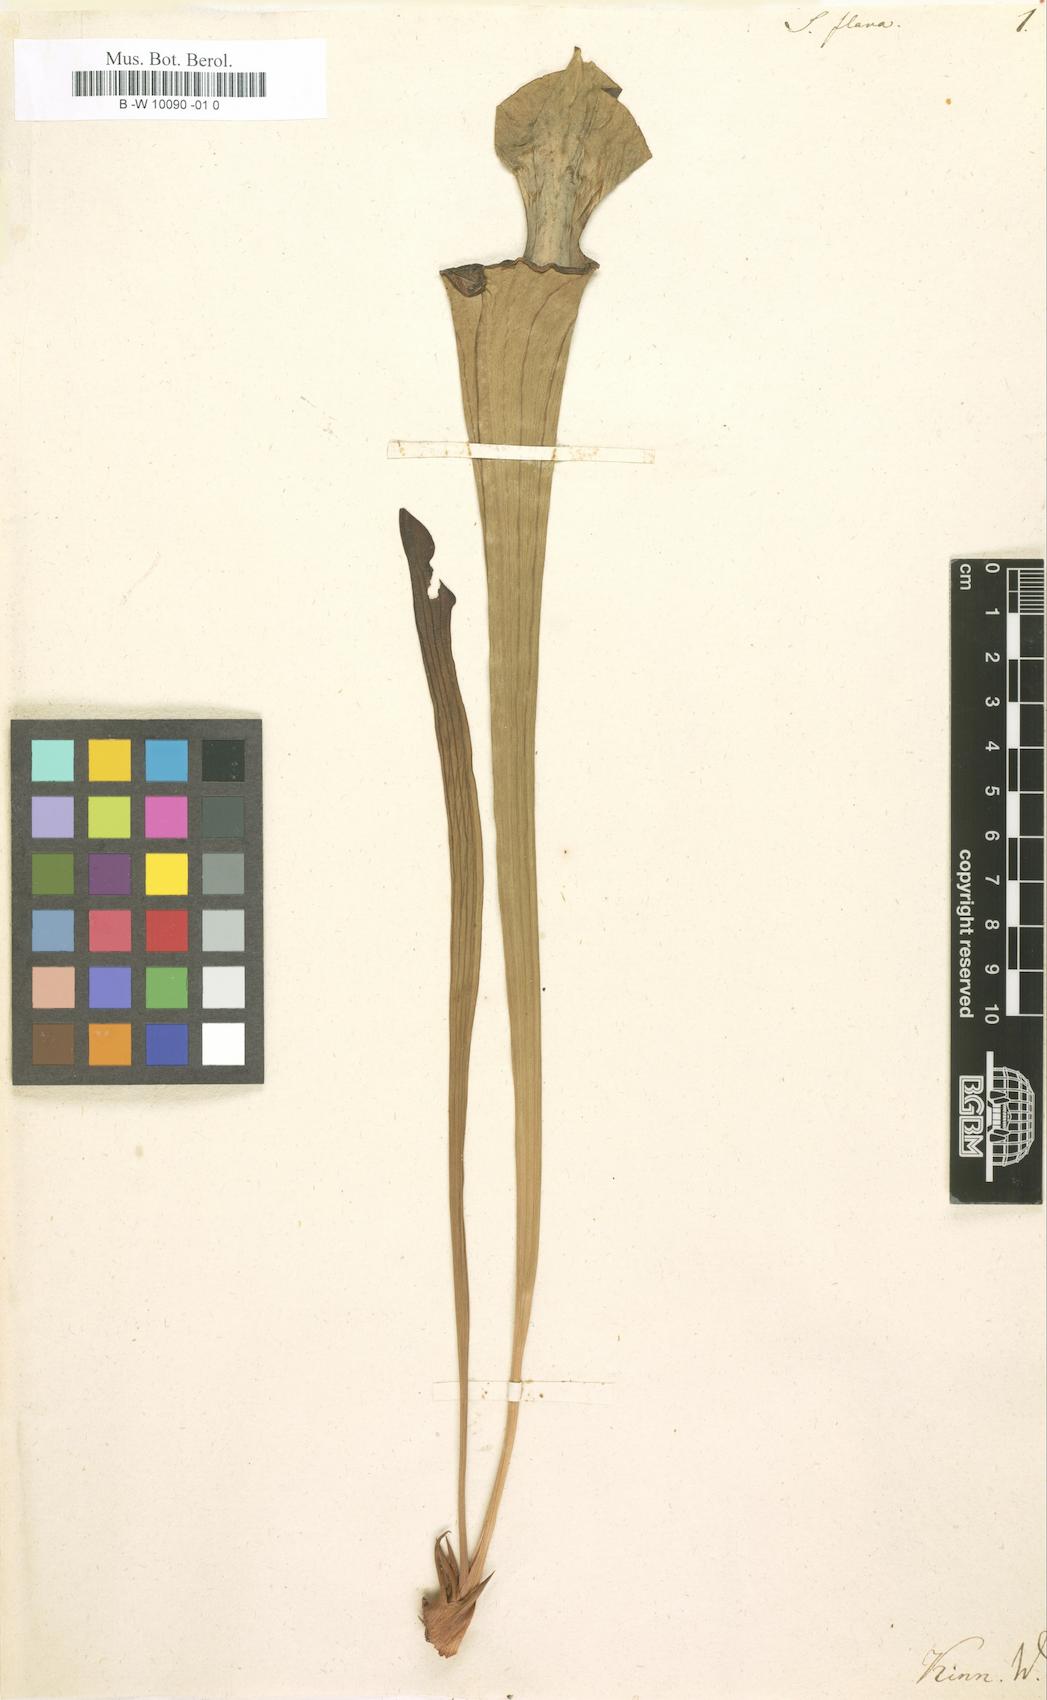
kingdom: Plantae
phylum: Tracheophyta
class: Magnoliopsida
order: Ericales
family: Sarraceniaceae
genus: Sarracenia
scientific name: Sarracenia flava
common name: Trumpets
